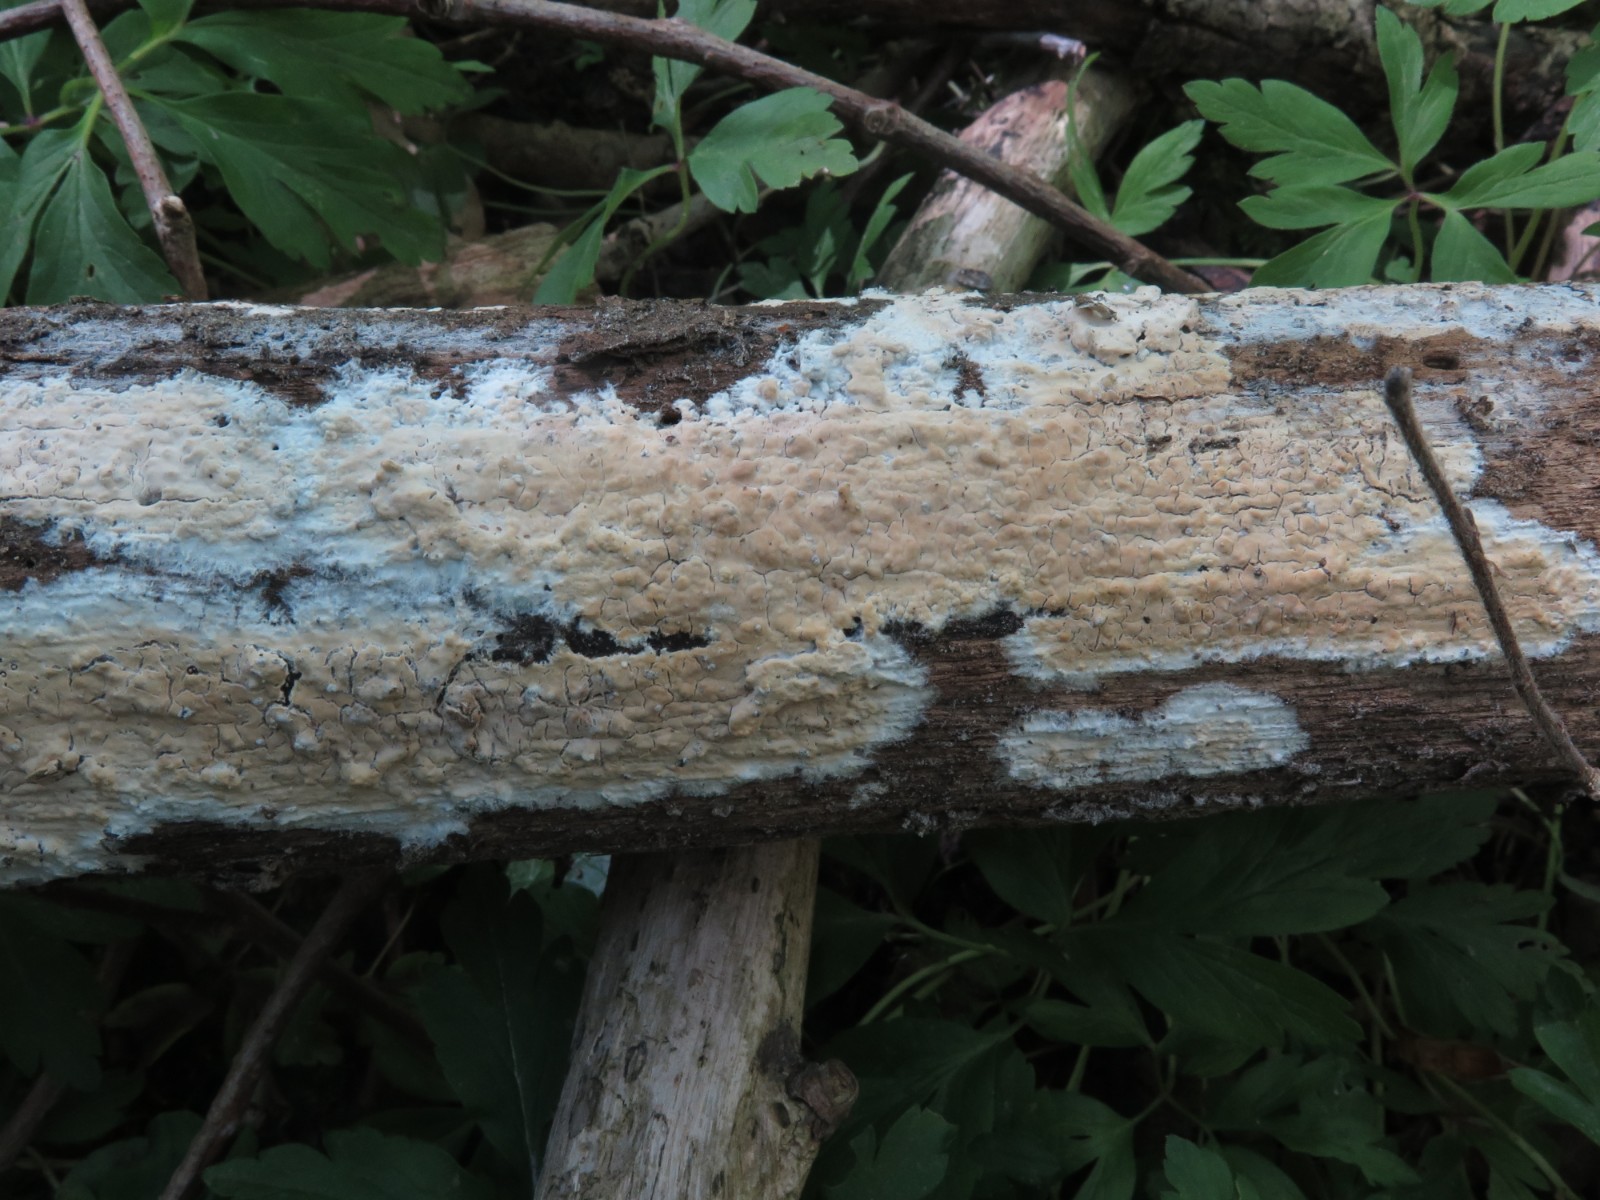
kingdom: Fungi
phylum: Basidiomycota
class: Agaricomycetes
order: Agaricales
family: Physalacriaceae
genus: Cylindrobasidium
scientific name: Cylindrobasidium evolvens
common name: sprækkehinde
